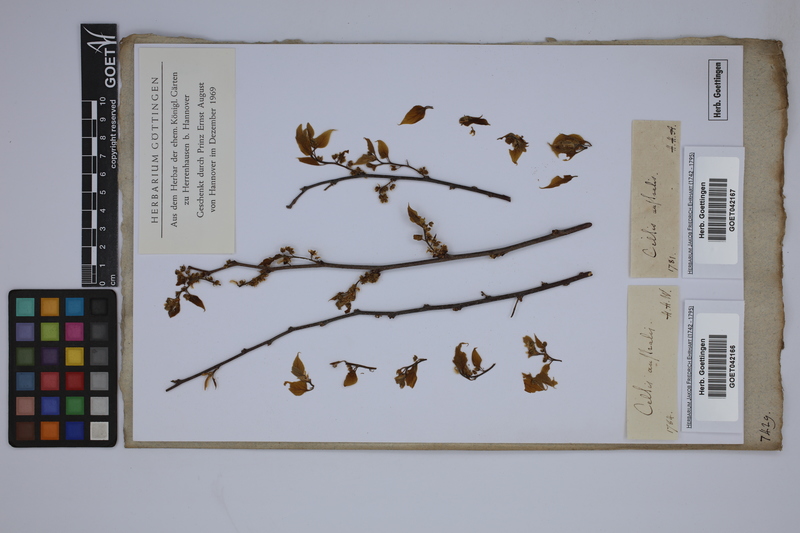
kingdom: Plantae
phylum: Tracheophyta
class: Magnoliopsida
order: Rosales
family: Cannabaceae
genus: Celtis
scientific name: Celtis australis
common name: European hackberry
